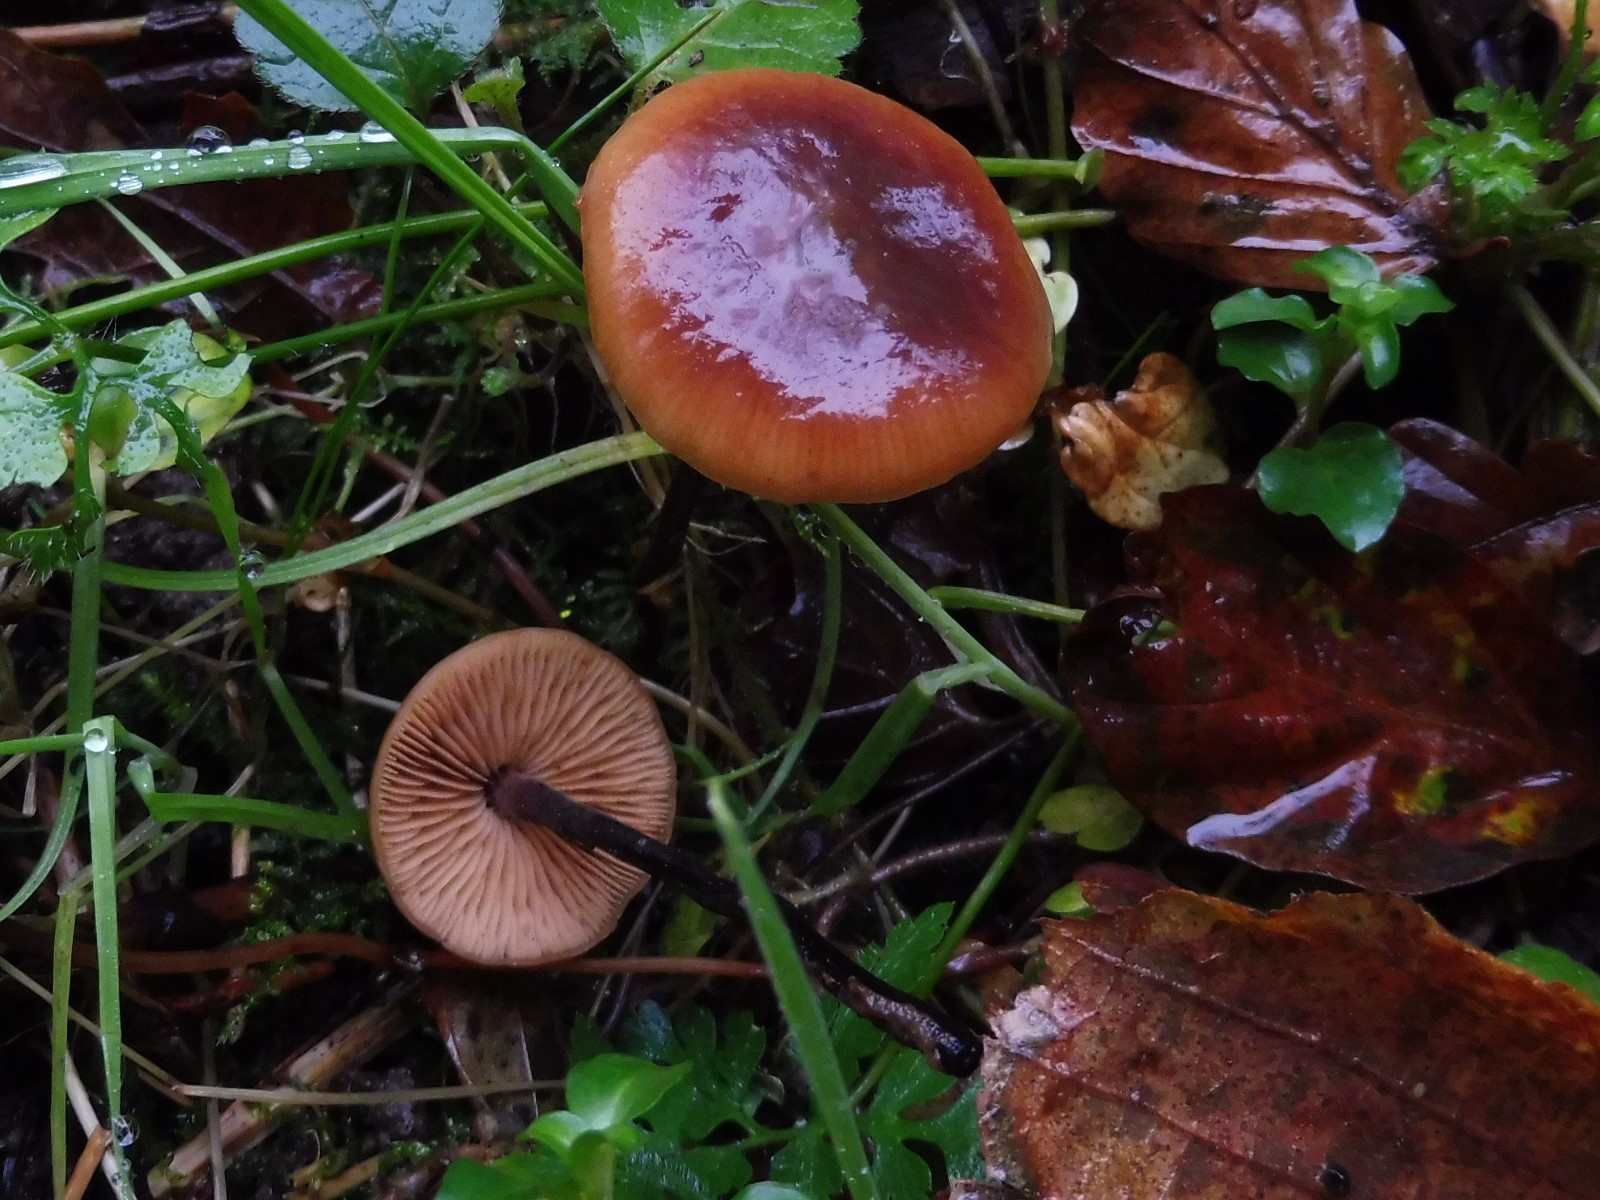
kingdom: Fungi
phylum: Basidiomycota
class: Agaricomycetes
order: Agaricales
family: Macrocystidiaceae
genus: Macrocystidia
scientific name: Macrocystidia cucumis
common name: agurkehat
